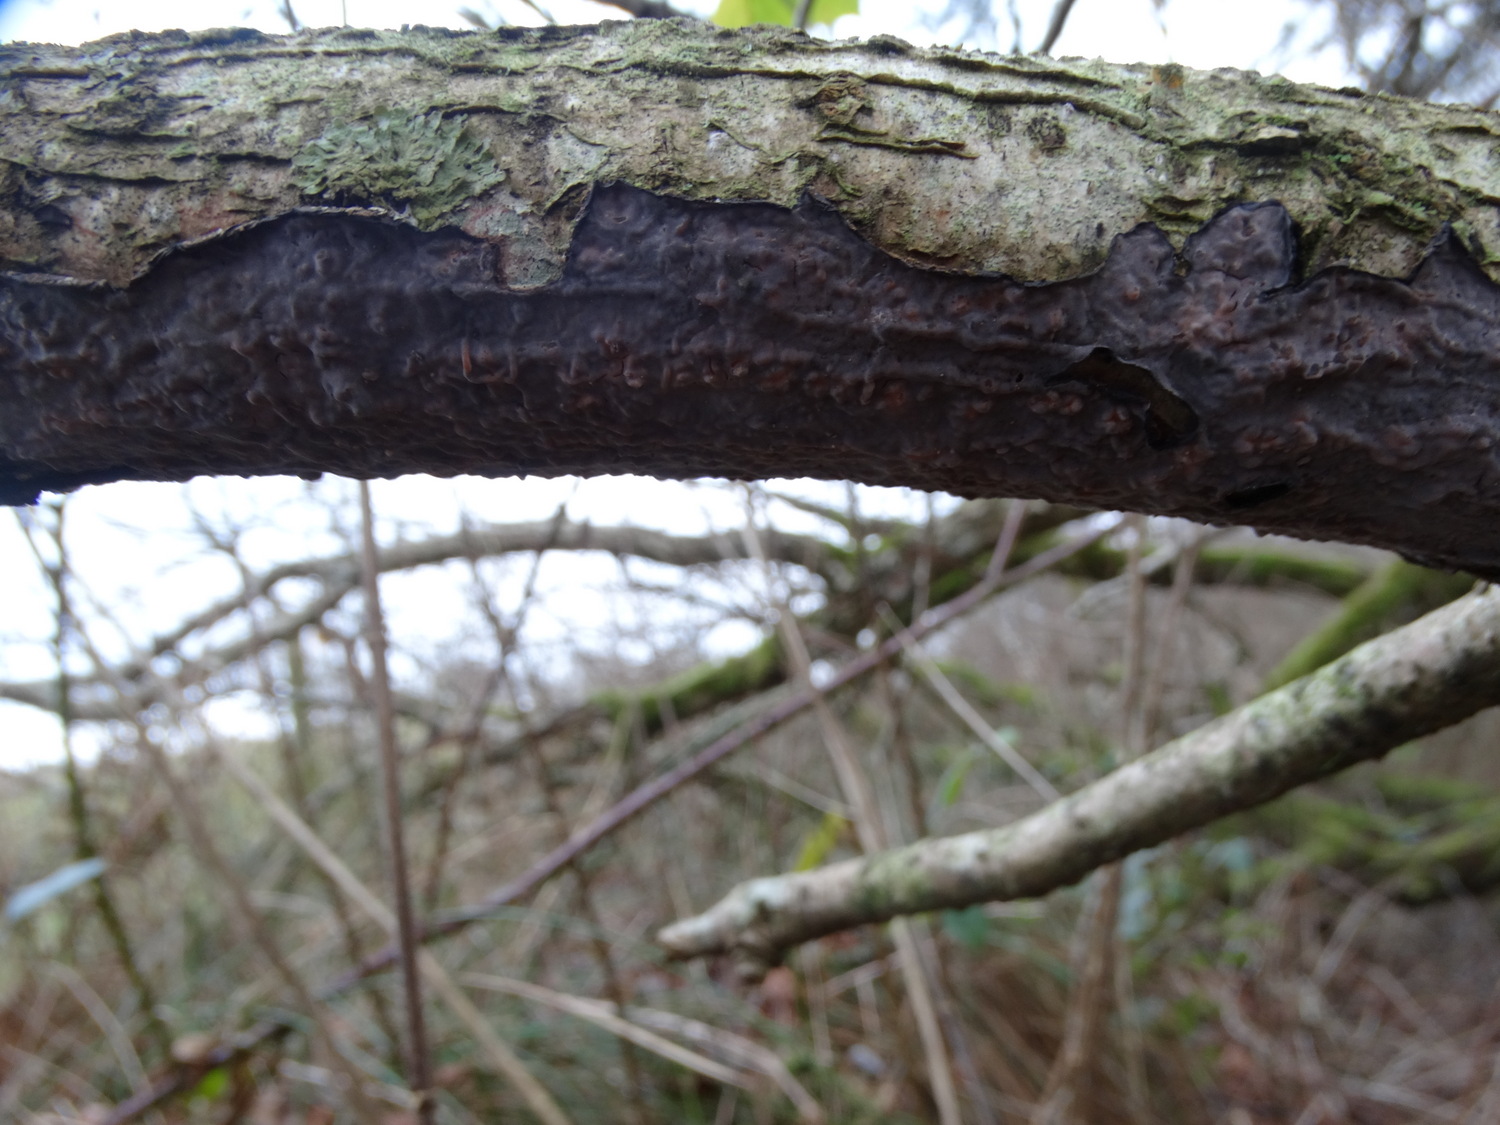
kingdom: Fungi
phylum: Basidiomycota
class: Agaricomycetes
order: Russulales
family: Peniophoraceae
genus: Peniophora
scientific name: Peniophora quercina
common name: ege-voksskind
